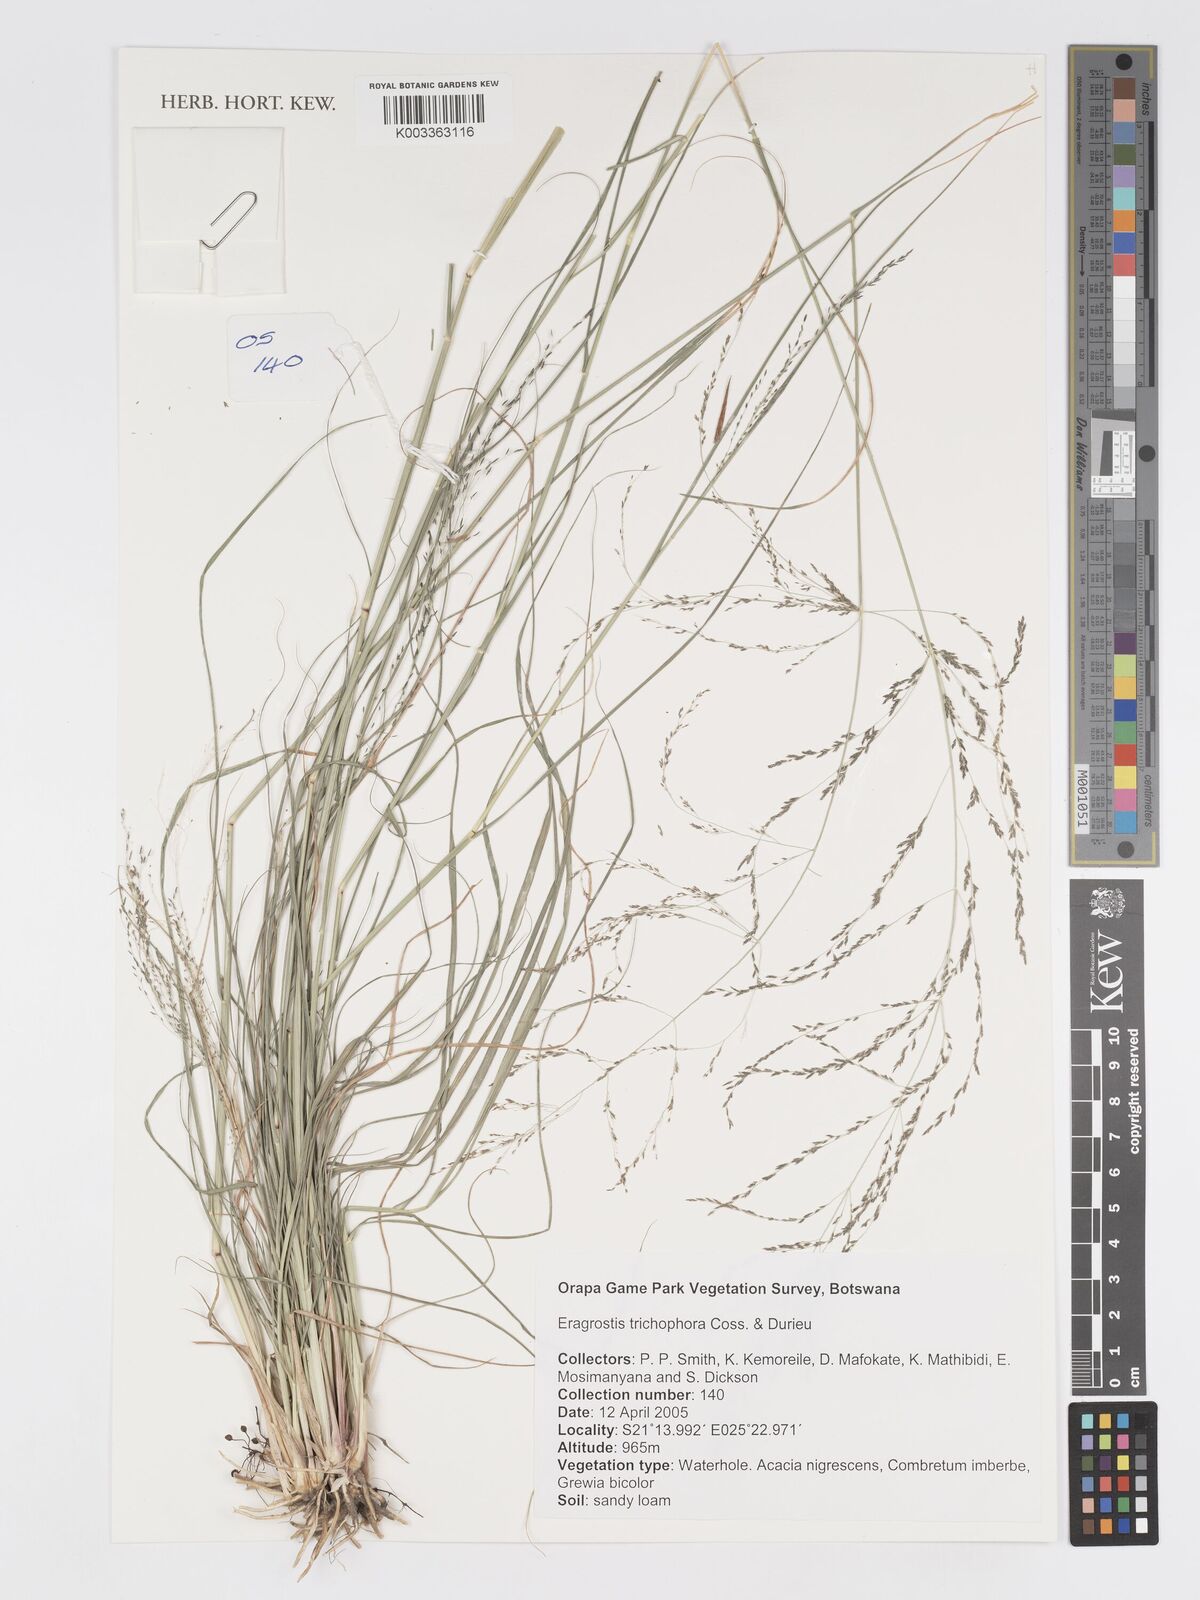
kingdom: Plantae
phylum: Tracheophyta
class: Liliopsida
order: Poales
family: Poaceae
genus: Eragrostis
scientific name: Eragrostis cylindriflora
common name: Cylinderflower lovegrass
